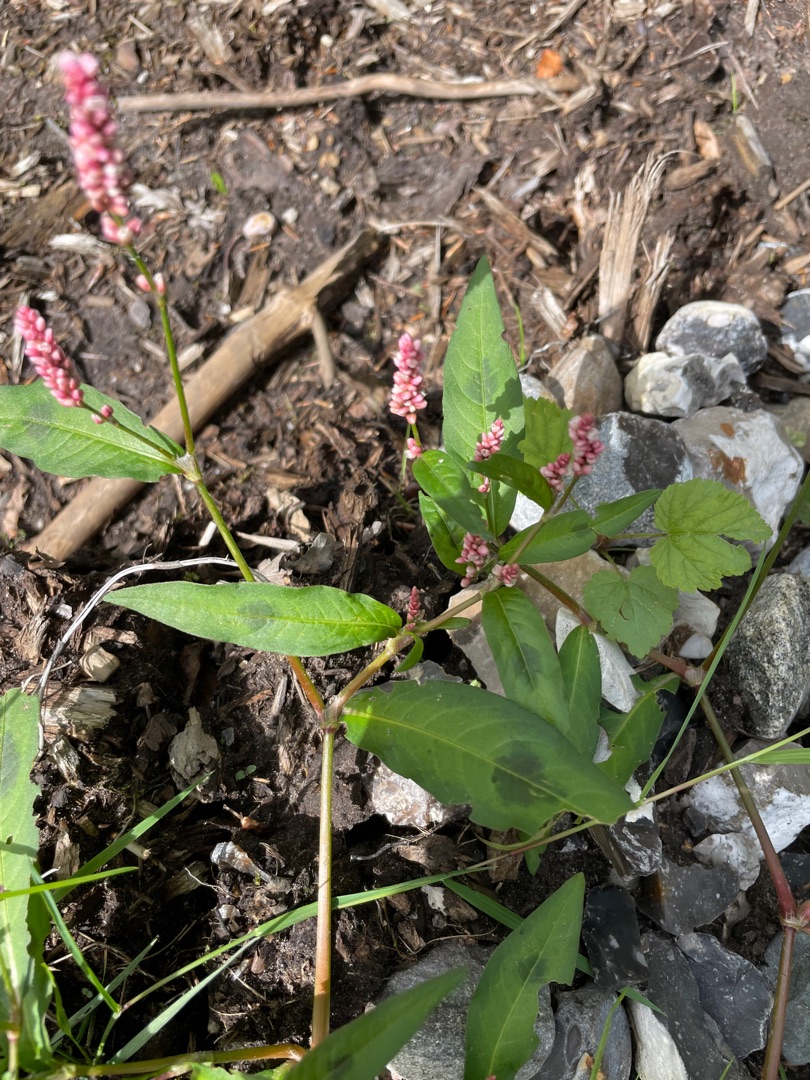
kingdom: Plantae
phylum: Tracheophyta
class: Magnoliopsida
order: Caryophyllales
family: Polygonaceae
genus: Persicaria
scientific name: Persicaria maculosa
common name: Fersken-pileurt
